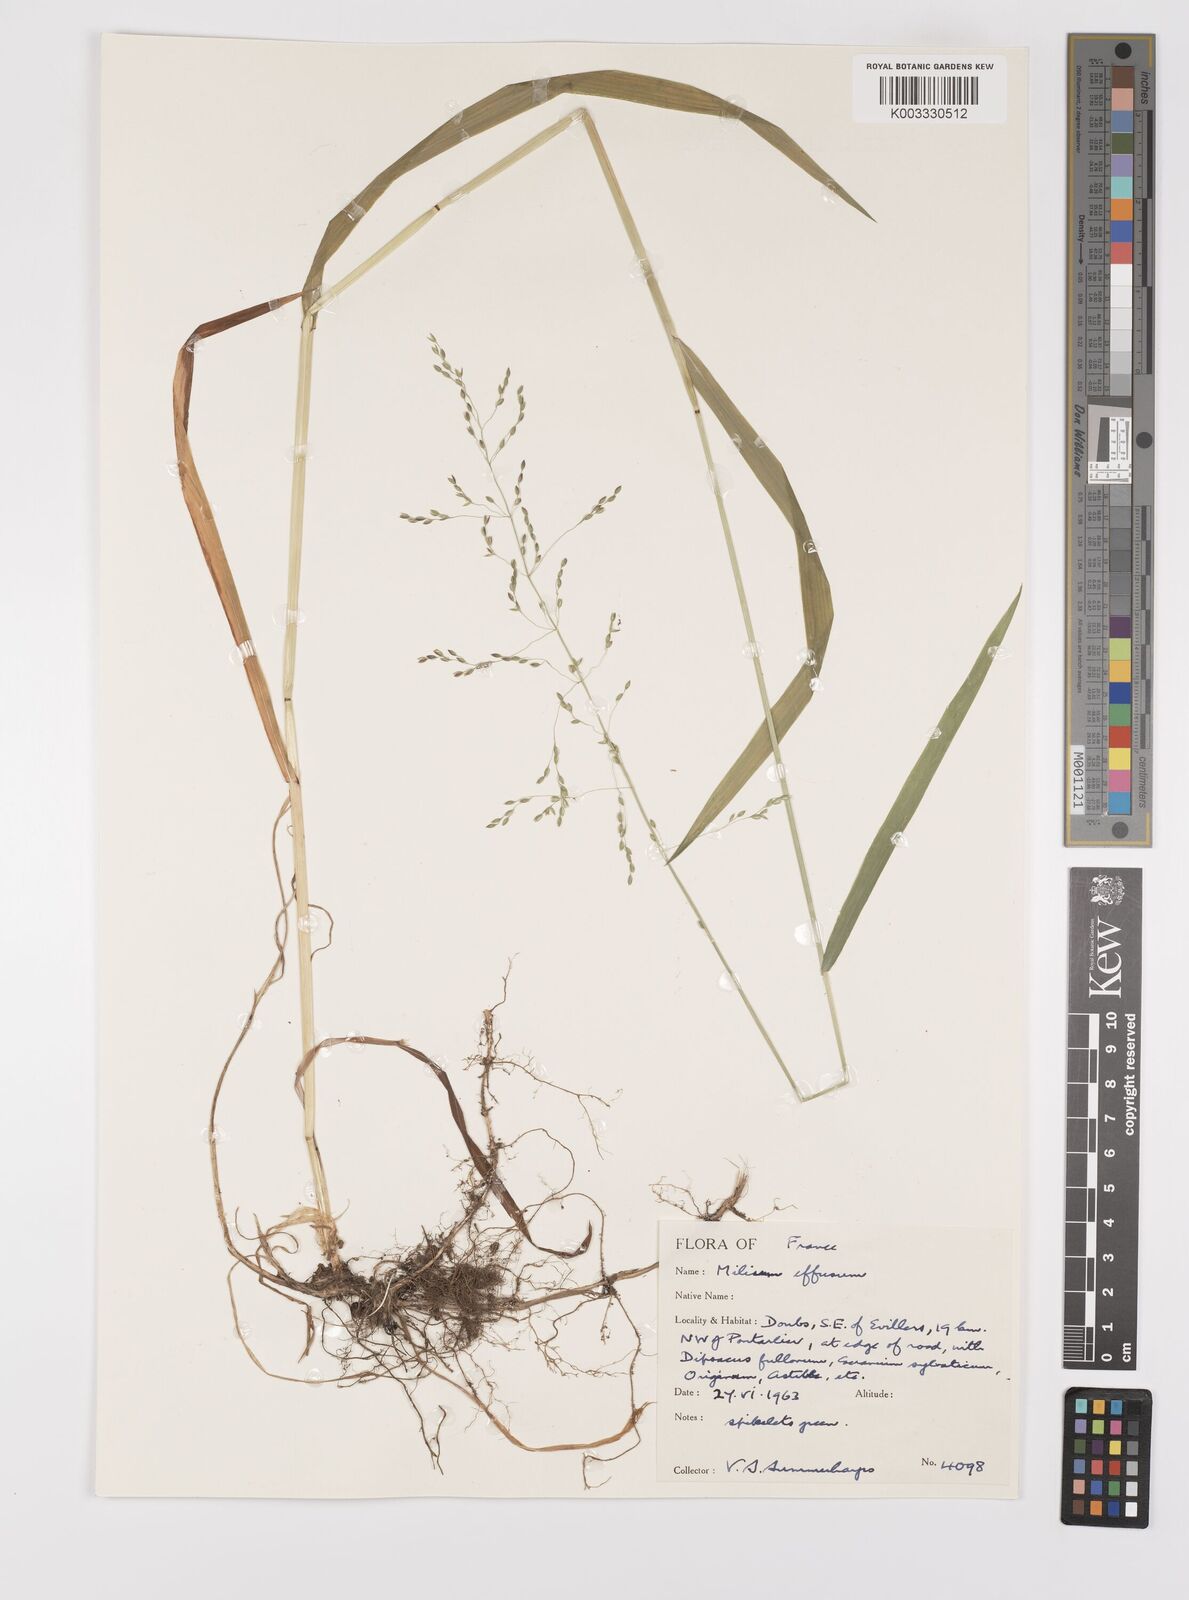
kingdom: Plantae
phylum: Tracheophyta
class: Liliopsida
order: Poales
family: Poaceae
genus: Milium
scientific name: Milium
